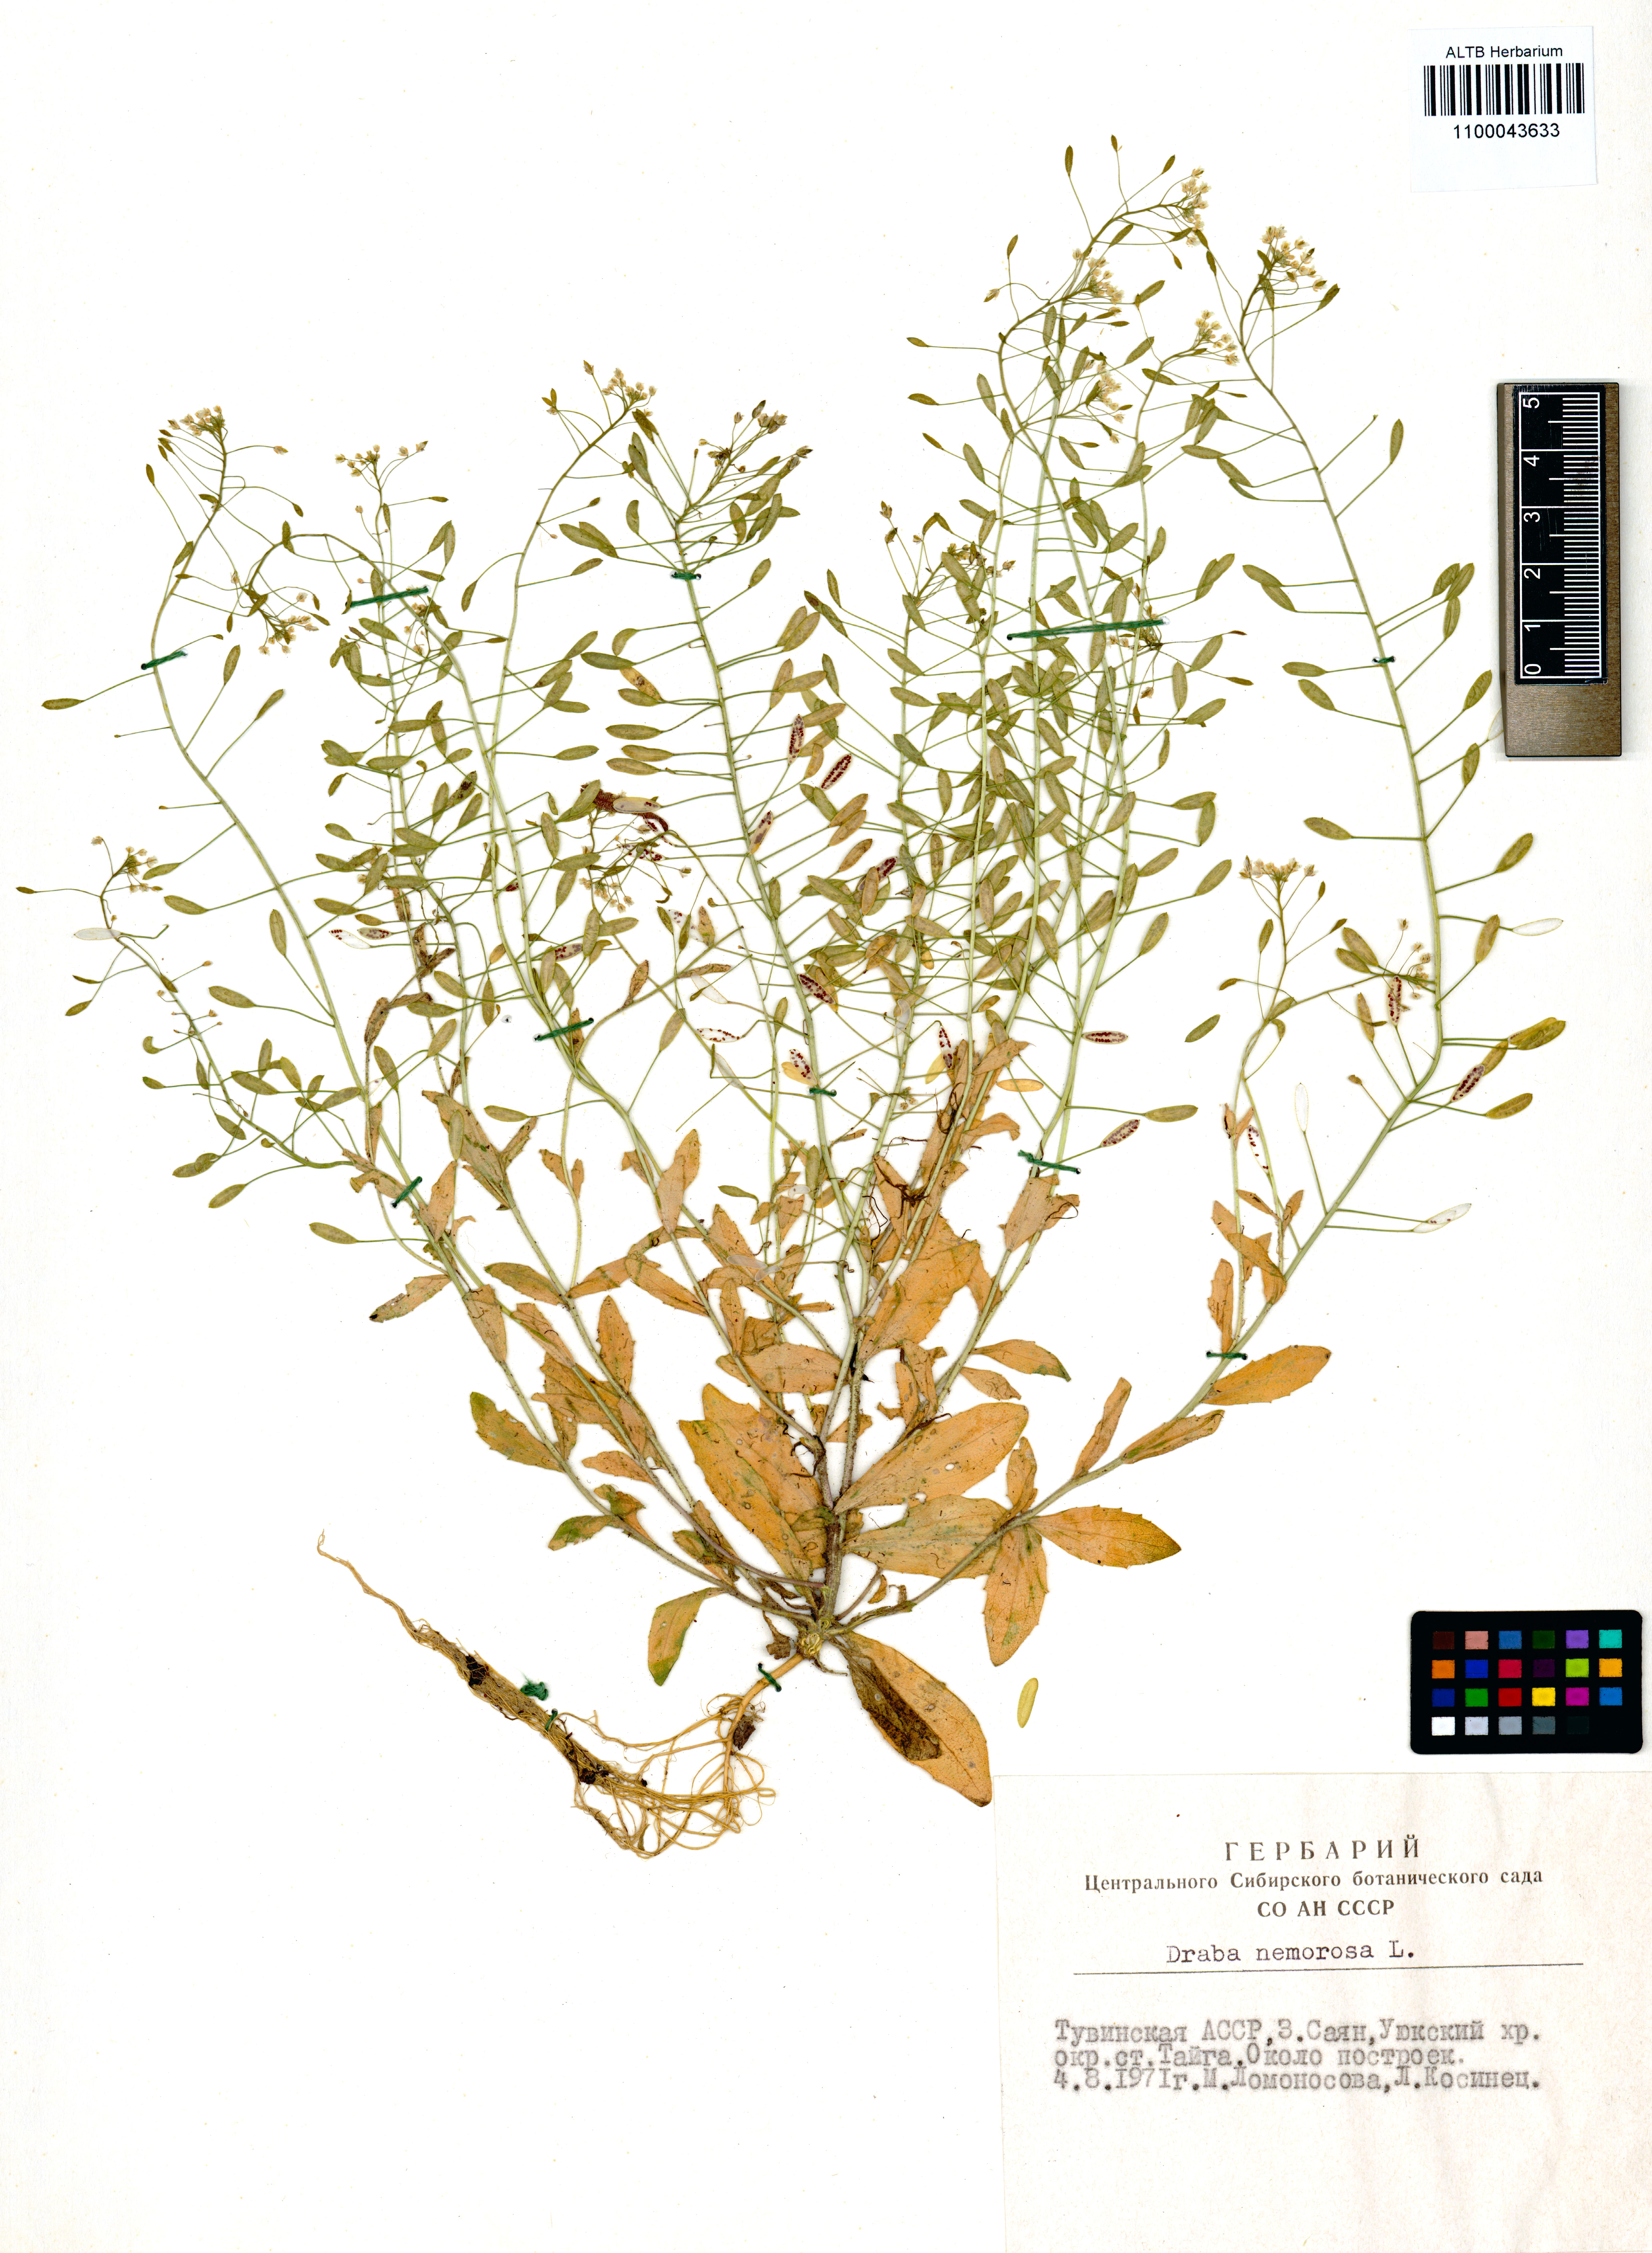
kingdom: Plantae
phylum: Tracheophyta
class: Magnoliopsida
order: Brassicales
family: Brassicaceae
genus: Draba
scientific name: Draba nemorosa
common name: Wood whitlow-grass
